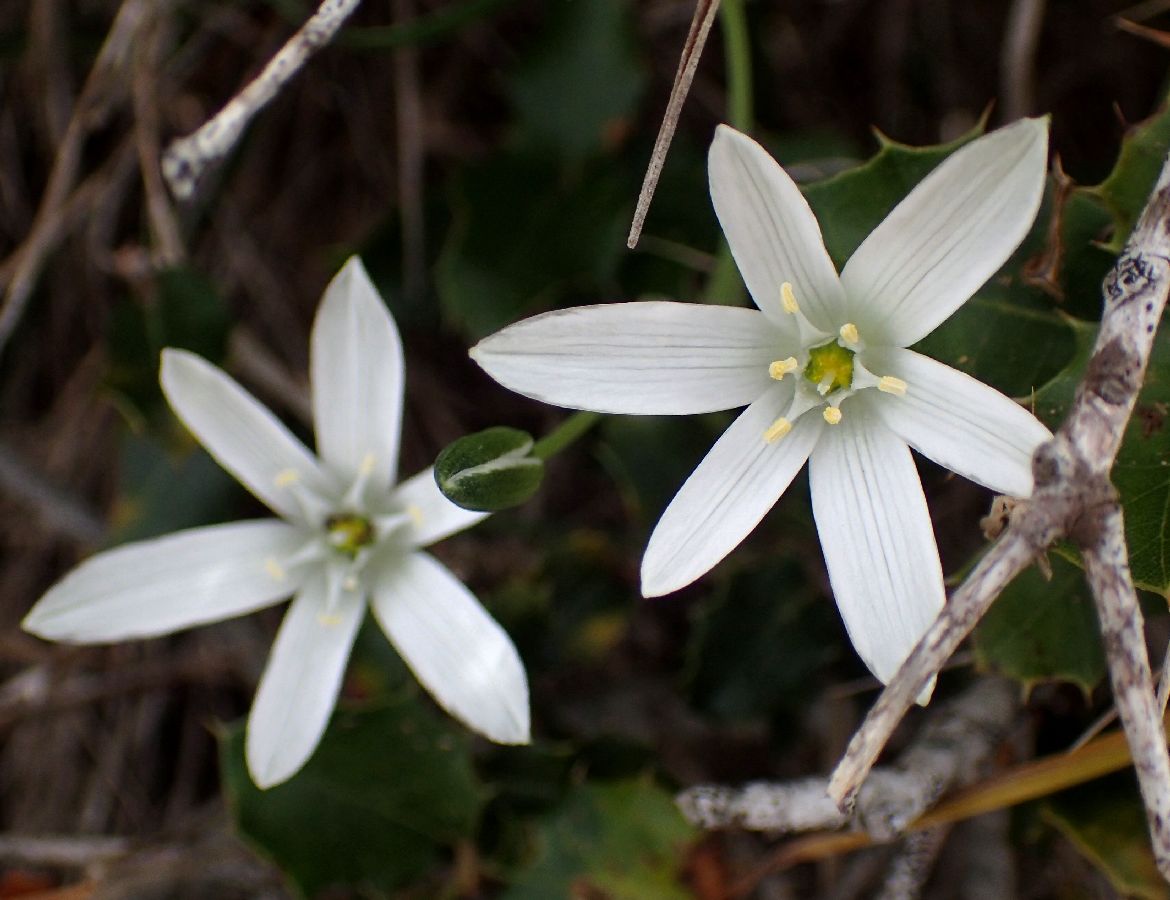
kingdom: Plantae
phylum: Tracheophyta
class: Liliopsida
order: Asparagales
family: Asparagaceae
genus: Ornithogalum
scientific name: Ornithogalum divergens
